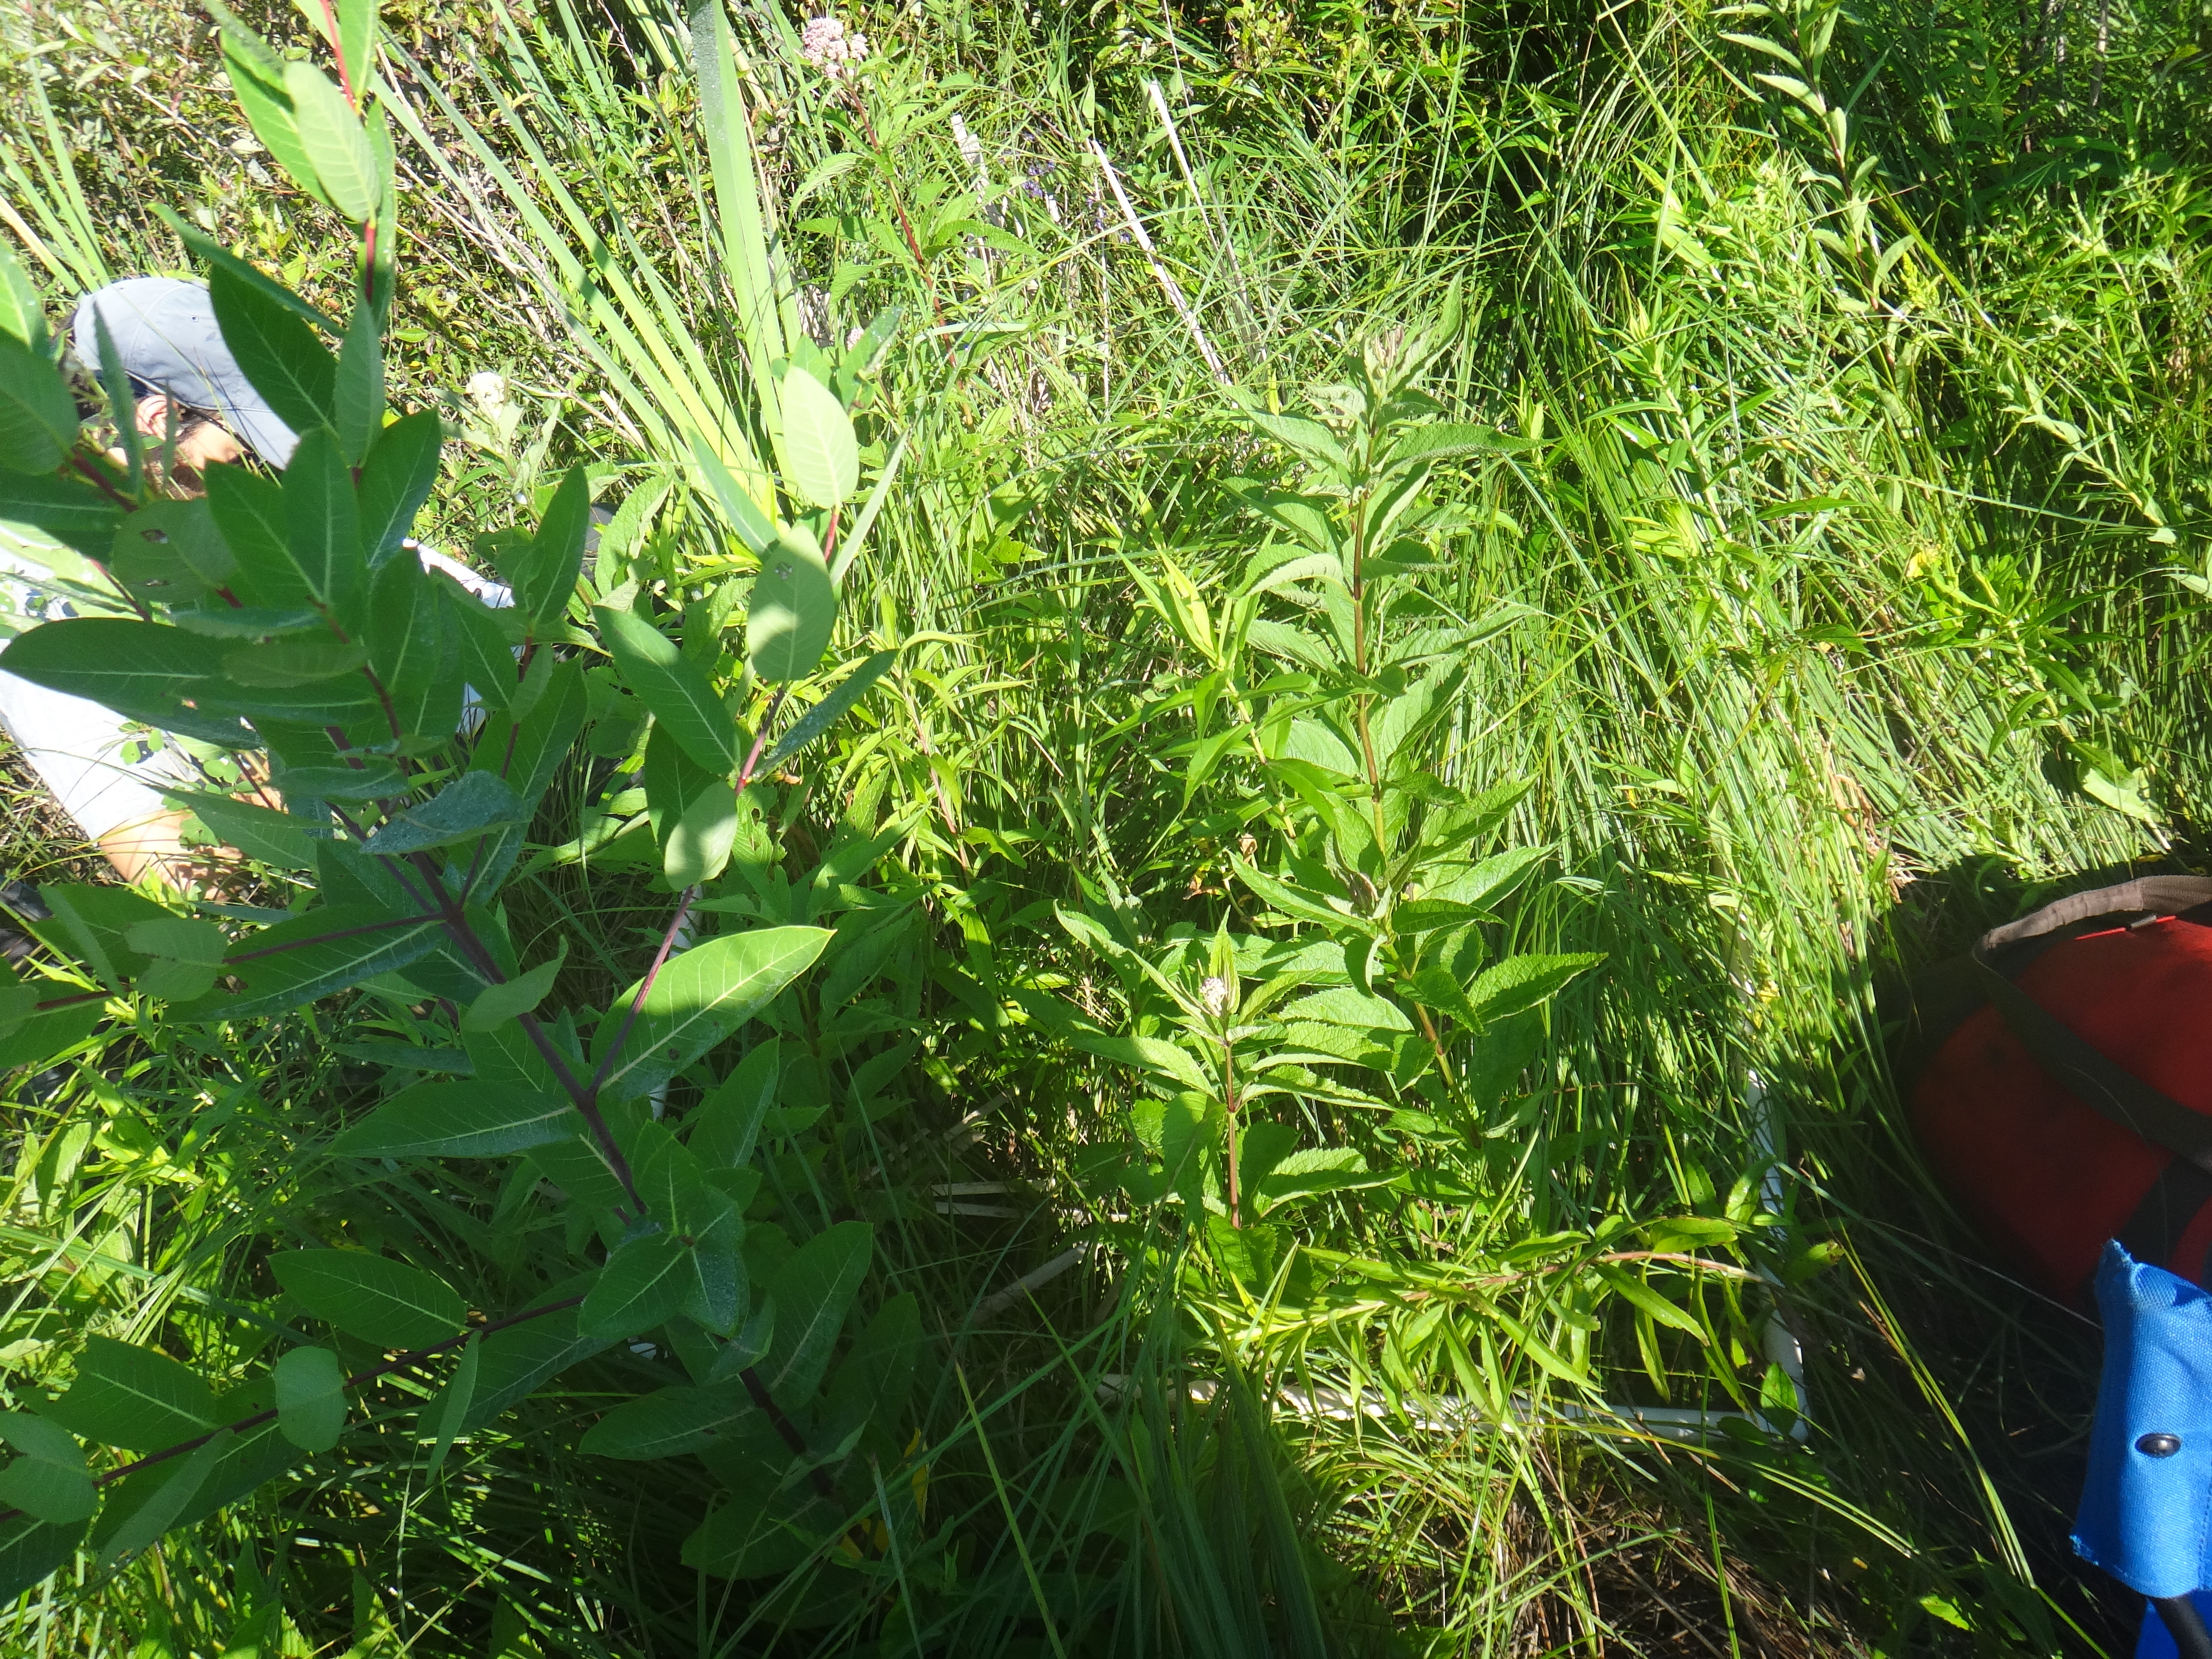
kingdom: Plantae
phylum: Tracheophyta
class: Liliopsida
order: Poales
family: Typhaceae
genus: Typha
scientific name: Typha latifolia
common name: Broadleaf cattail
